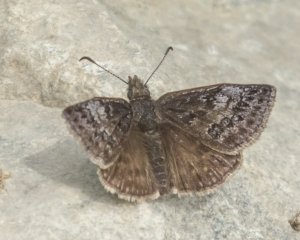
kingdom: Animalia
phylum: Arthropoda
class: Insecta
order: Lepidoptera
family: Hesperiidae
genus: Erynnis
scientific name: Erynnis icelus
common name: Dreamy Duskywing
